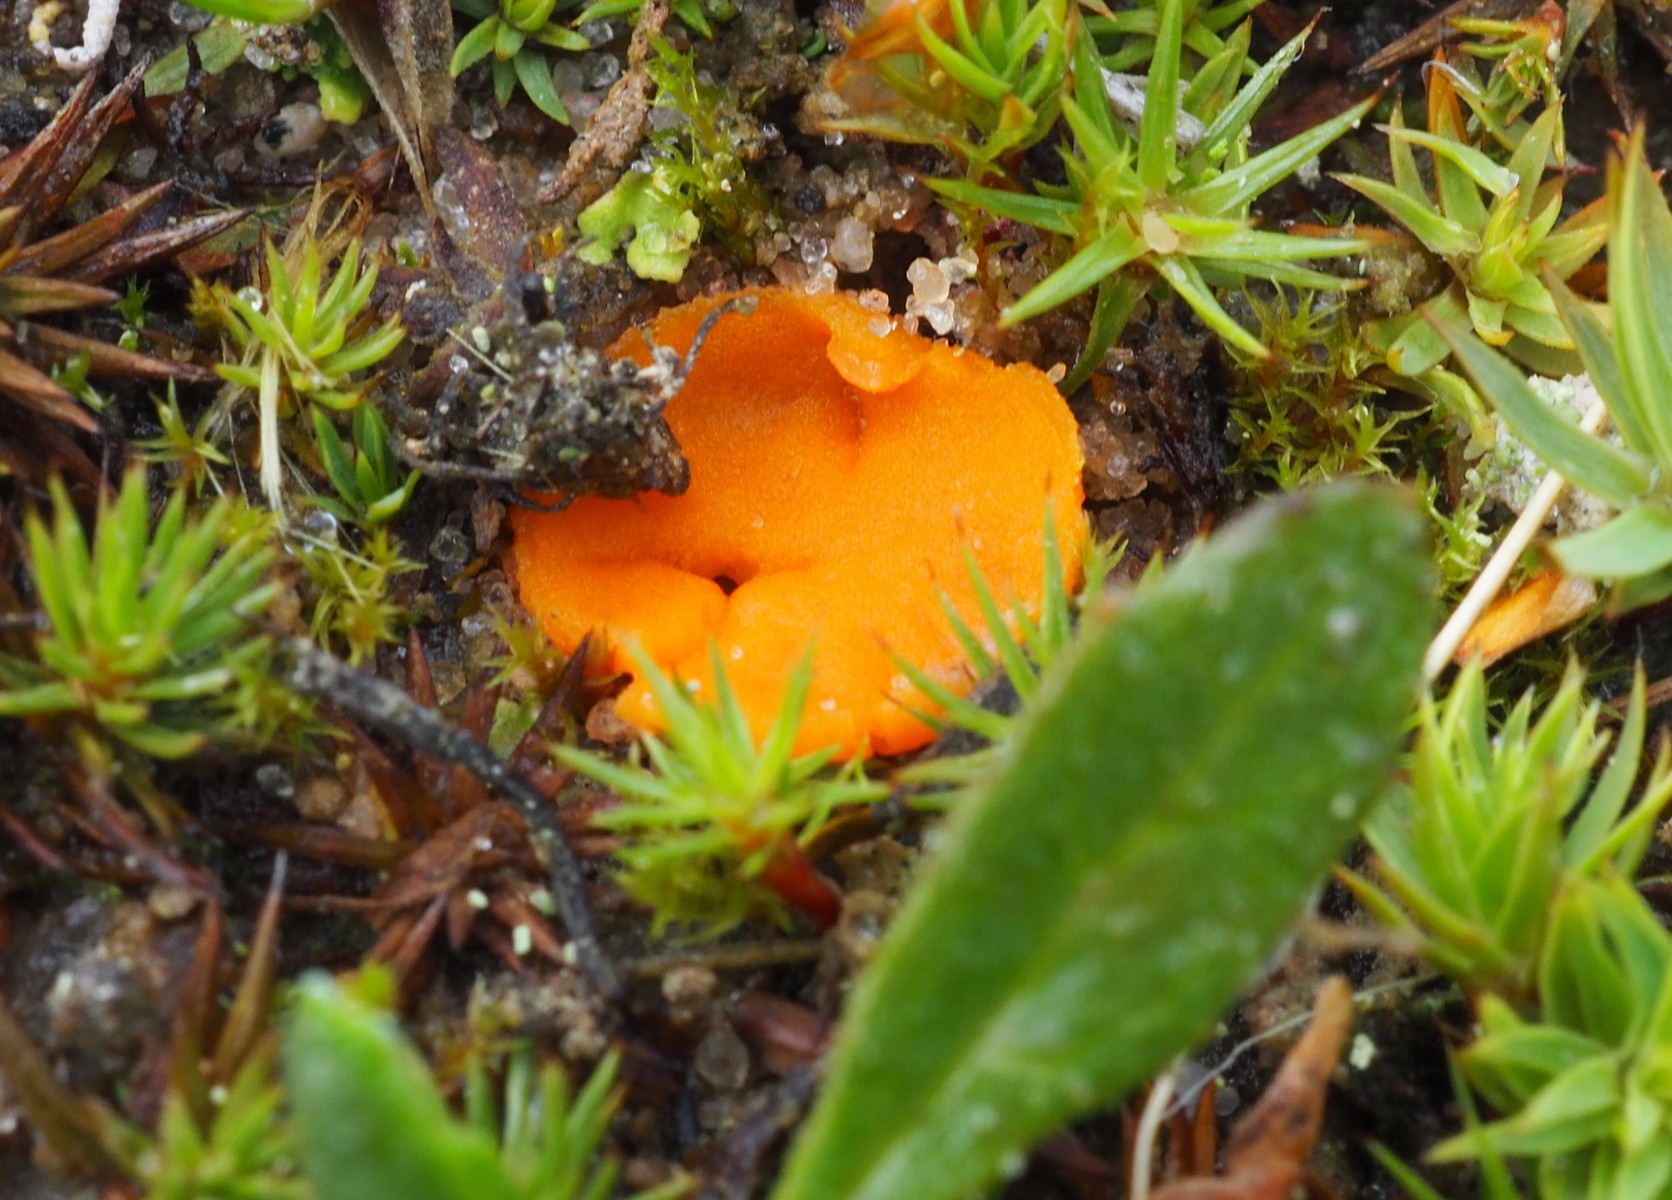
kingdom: Fungi
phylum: Ascomycota
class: Pezizomycetes
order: Pezizales
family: Pyronemataceae
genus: Neottiella
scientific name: Neottiella
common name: mosbæger
